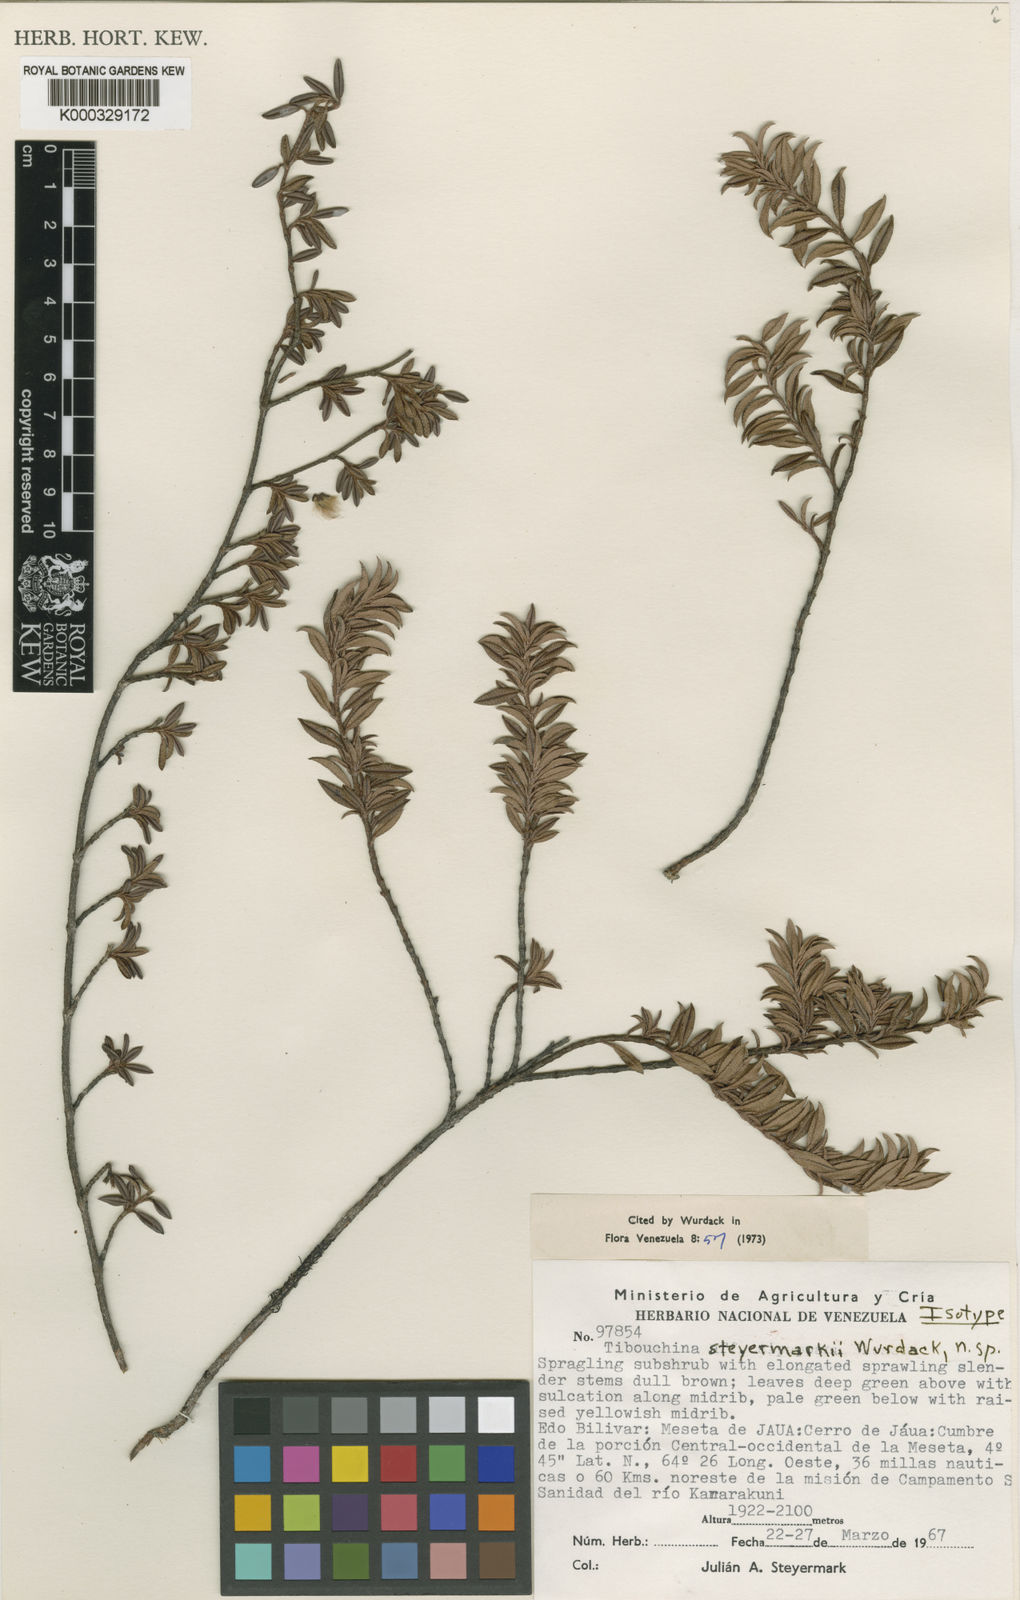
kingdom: Plantae
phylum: Tracheophyta
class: Magnoliopsida
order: Myrtales
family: Melastomataceae
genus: Tibouchina
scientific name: Tibouchina steyermarkii
